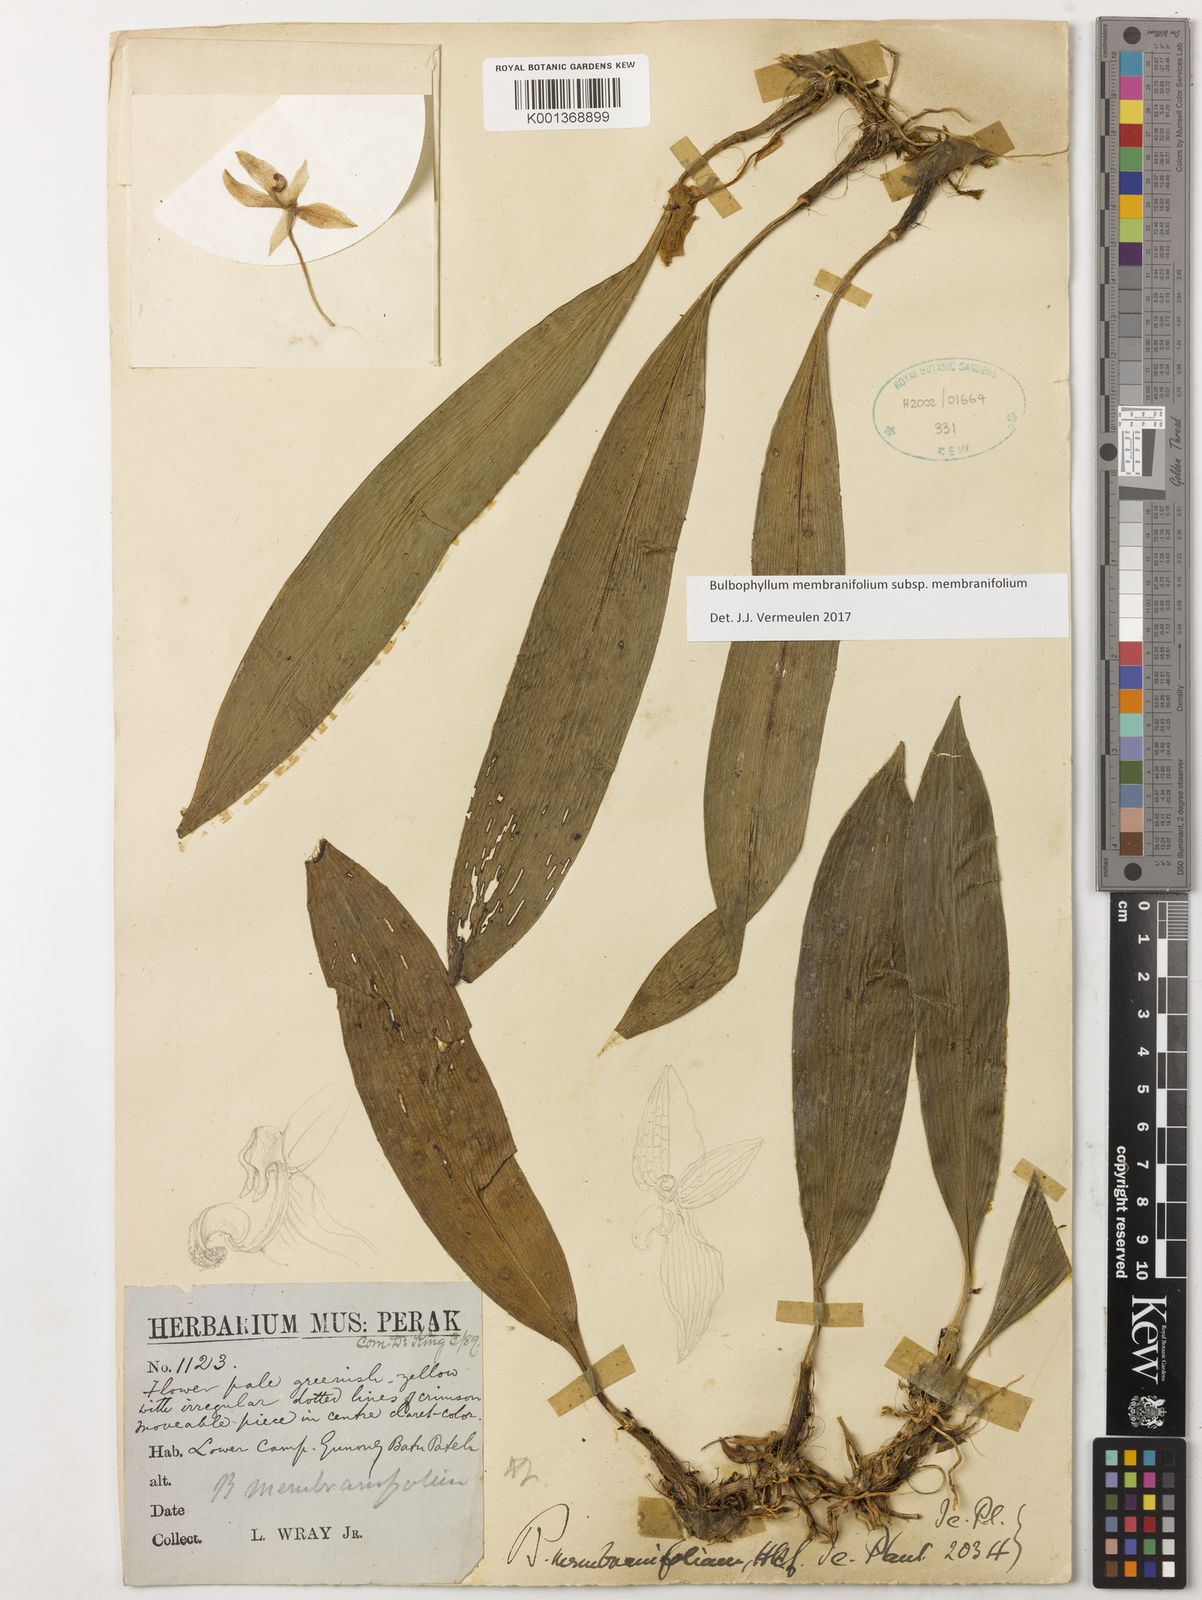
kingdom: Plantae
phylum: Tracheophyta
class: Liliopsida
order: Asparagales
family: Orchidaceae
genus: Bulbophyllum
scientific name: Bulbophyllum membranifolium
